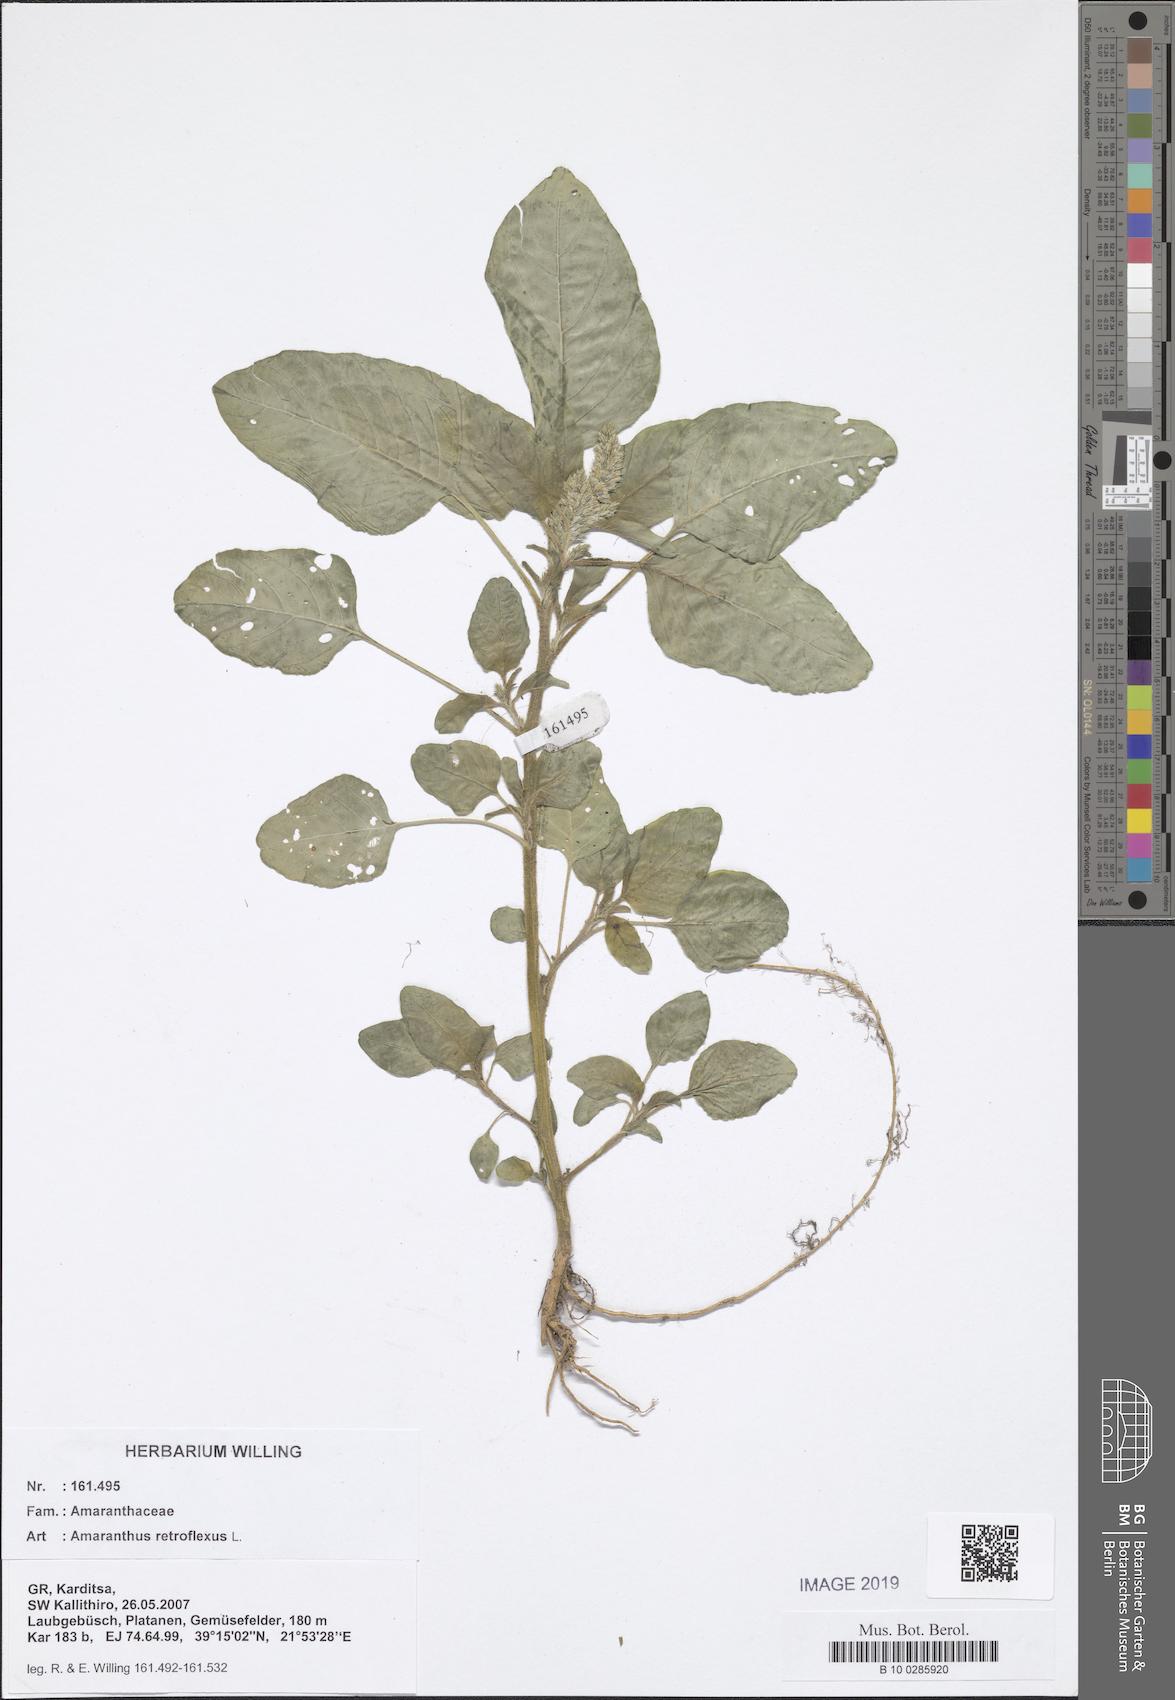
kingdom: Plantae
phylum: Tracheophyta
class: Magnoliopsida
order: Caryophyllales
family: Amaranthaceae
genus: Amaranthus
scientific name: Amaranthus retroflexus
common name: Redroot amaranth
